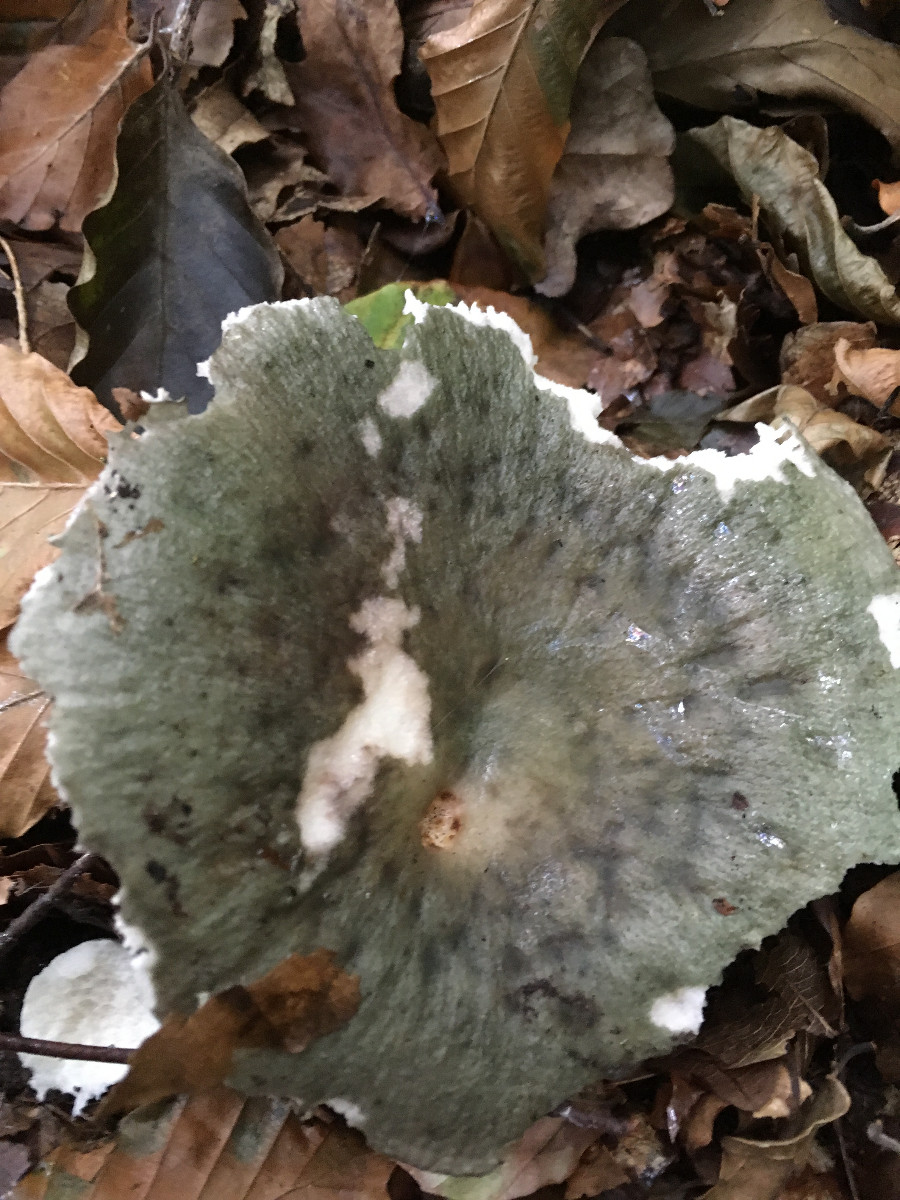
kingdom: Fungi
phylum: Basidiomycota
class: Agaricomycetes
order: Russulales
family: Russulaceae
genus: Russula
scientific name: Russula
